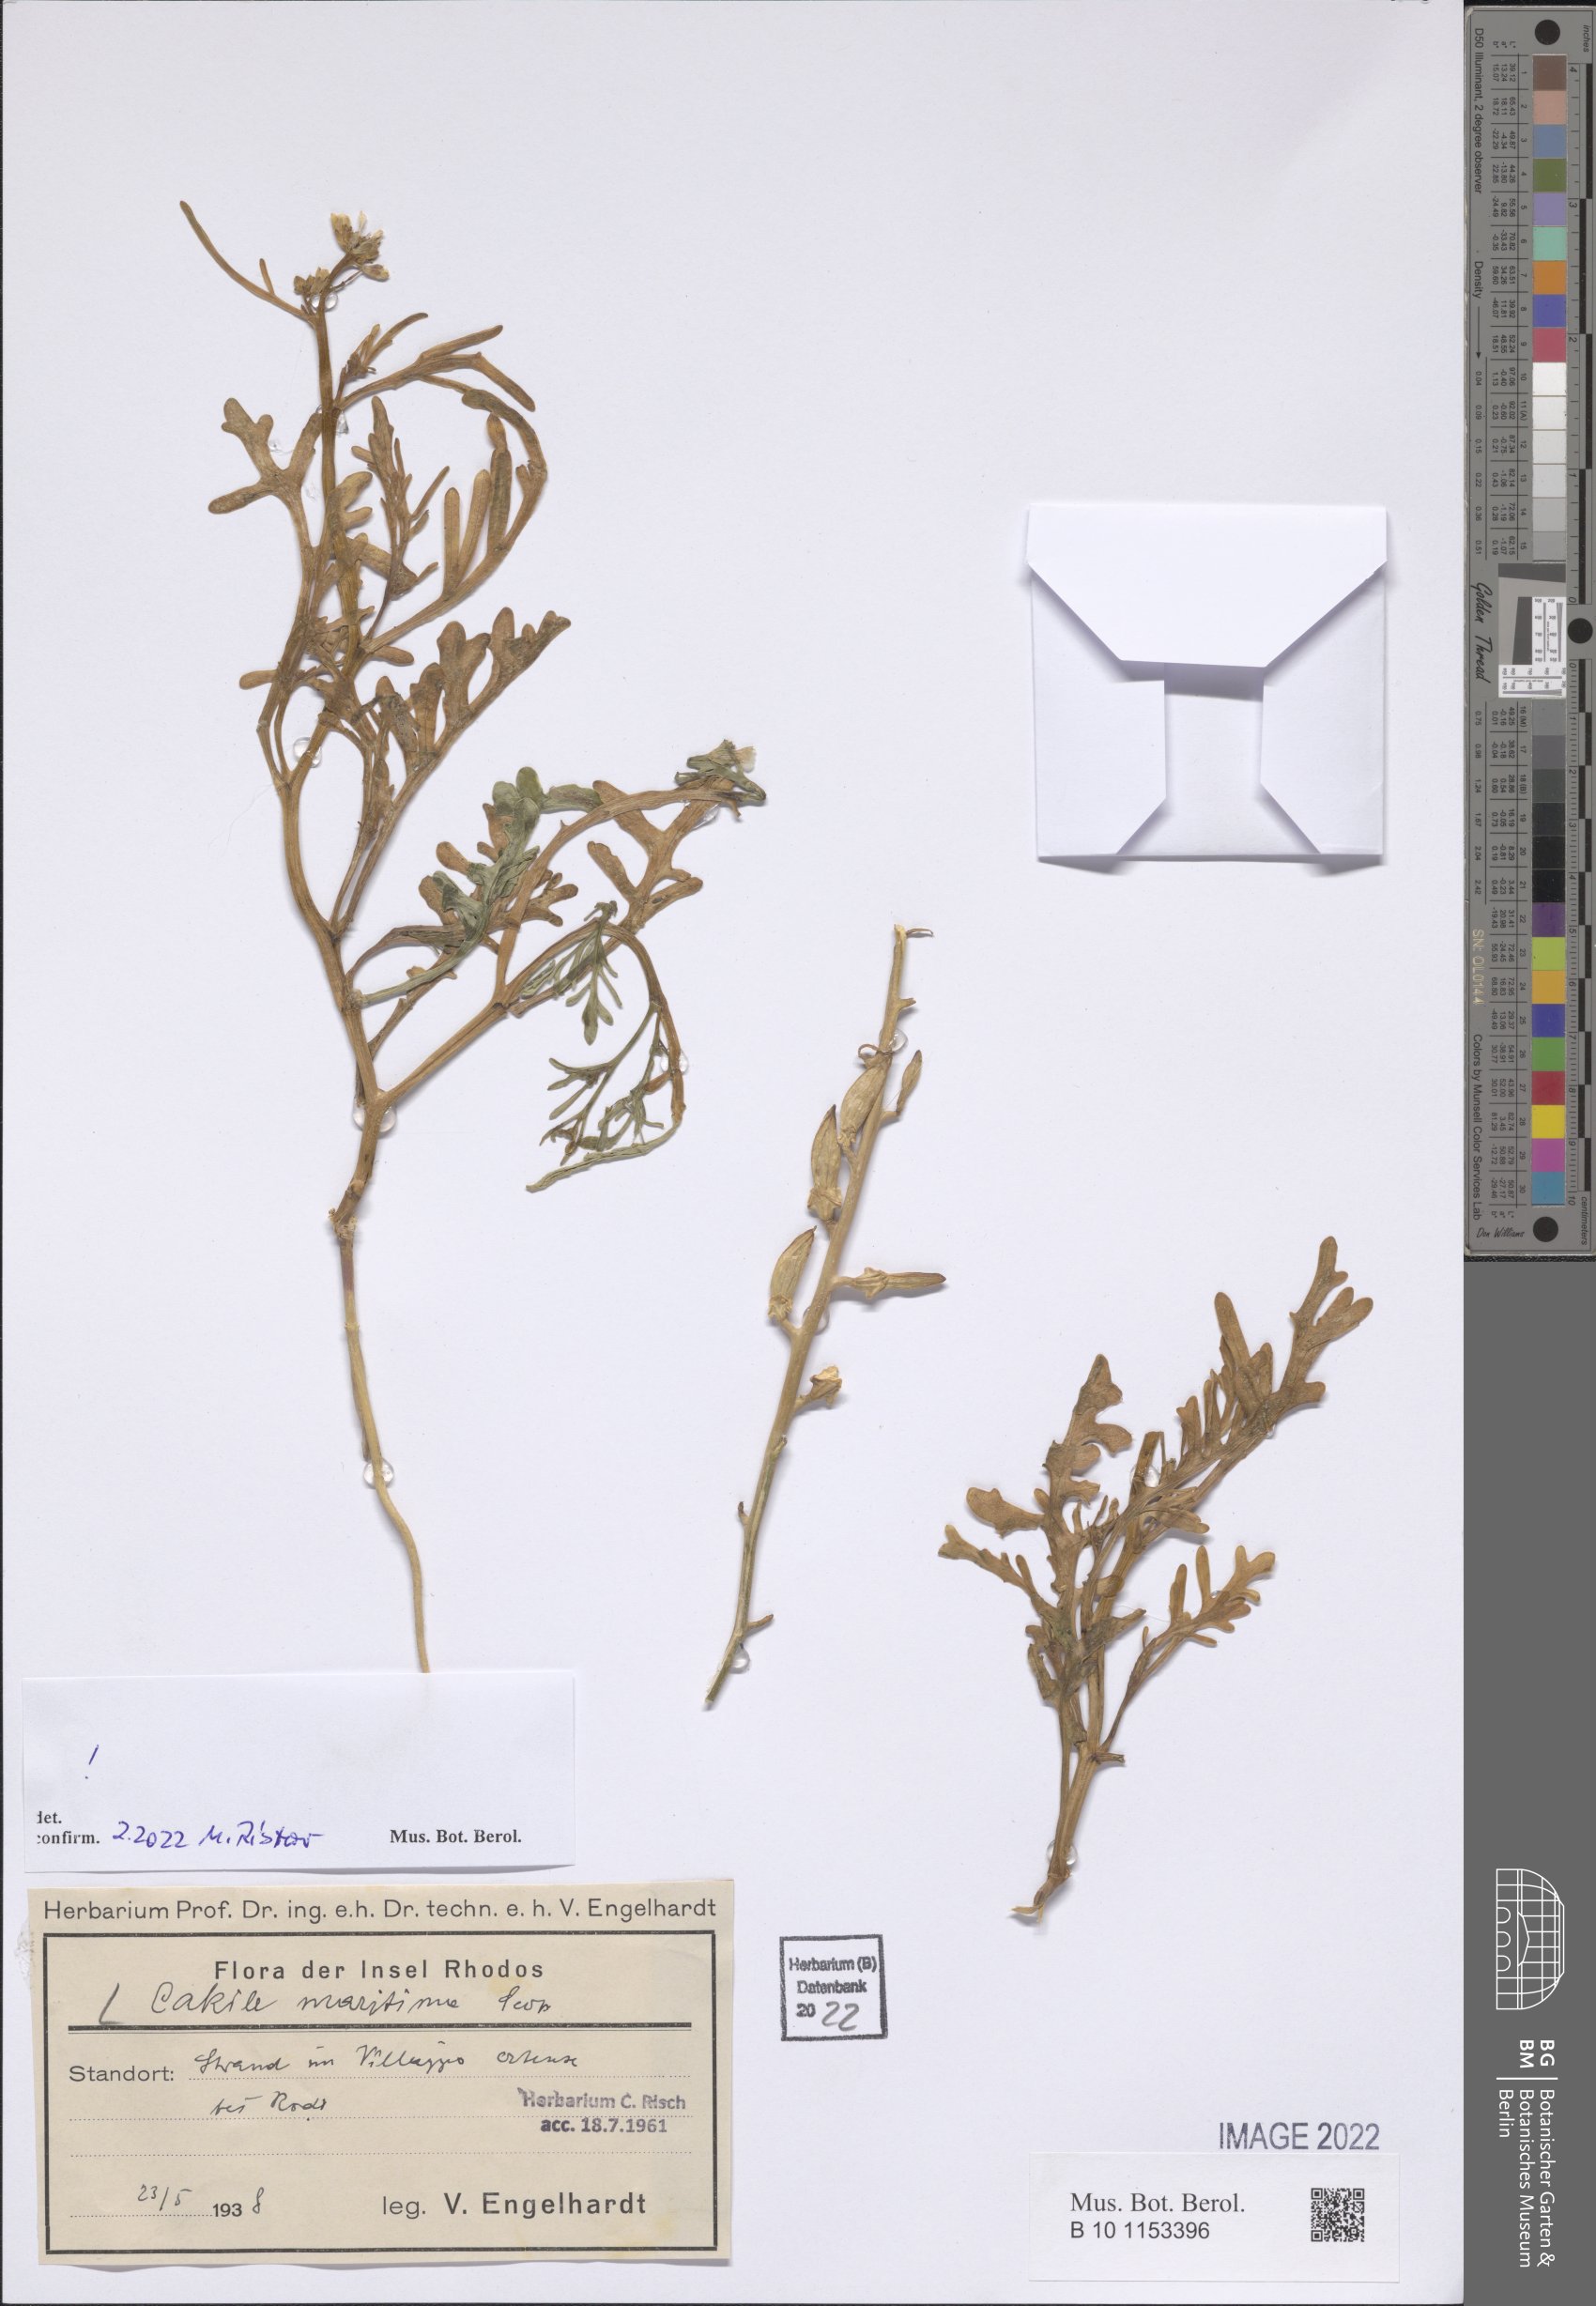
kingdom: Plantae
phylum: Tracheophyta
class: Magnoliopsida
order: Brassicales
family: Brassicaceae
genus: Cakile
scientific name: Cakile maritima
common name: Sea rocket
